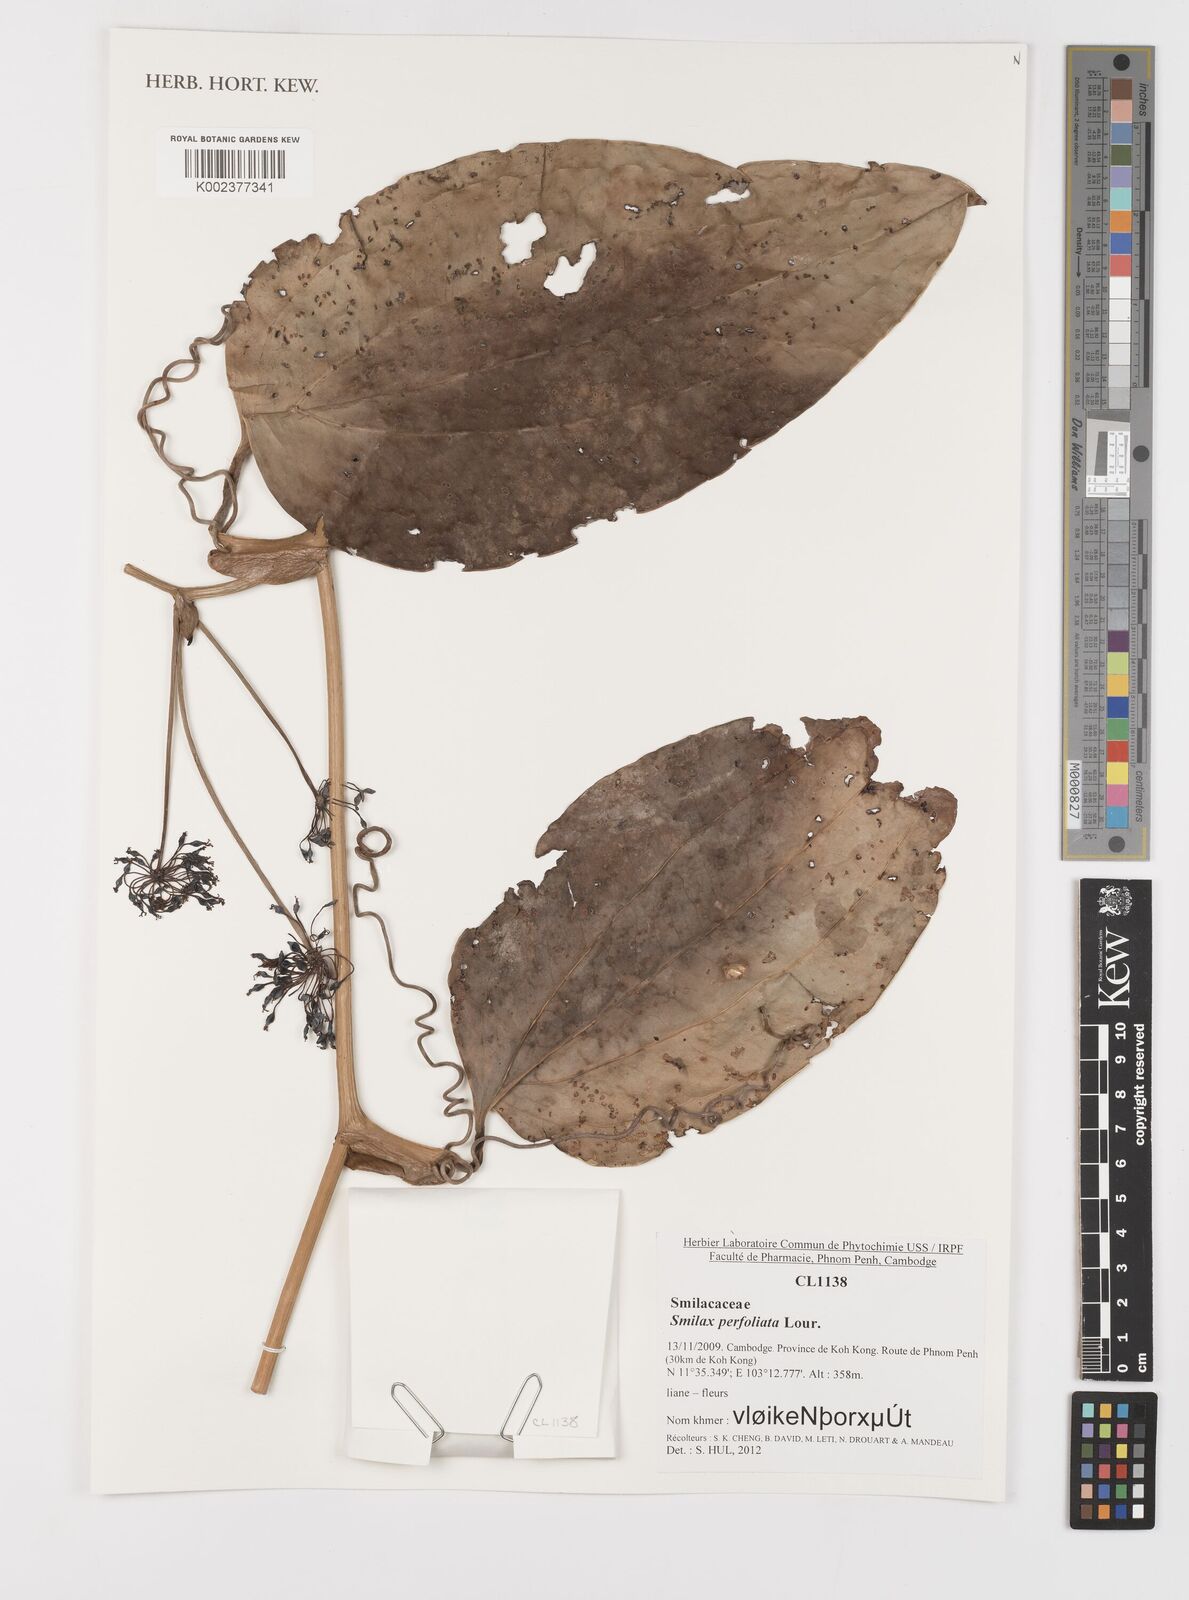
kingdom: Plantae
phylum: Tracheophyta
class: Liliopsida
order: Liliales
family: Smilacaceae
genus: Smilax
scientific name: Smilax perfoliata
